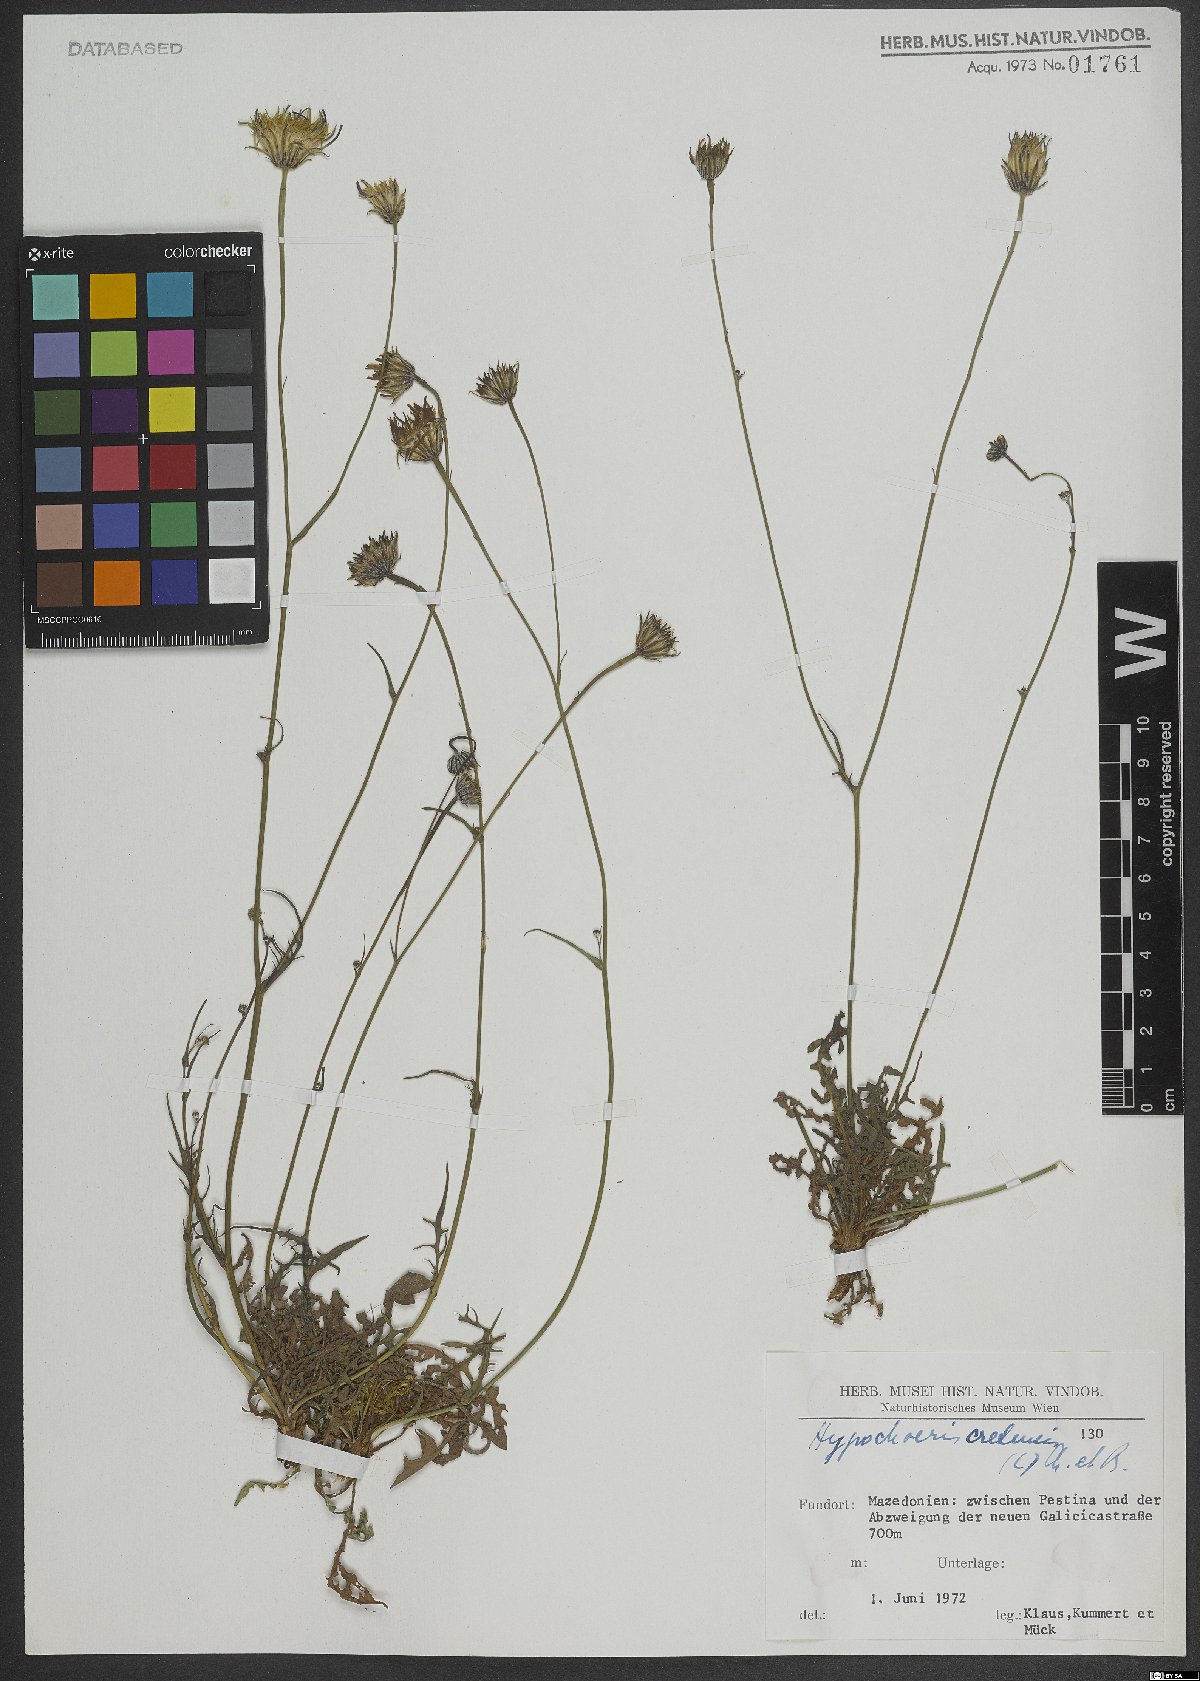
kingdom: Plantae
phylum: Tracheophyta
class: Magnoliopsida
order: Asterales
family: Asteraceae
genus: Hypochaeris
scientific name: Hypochaeris cretensis
